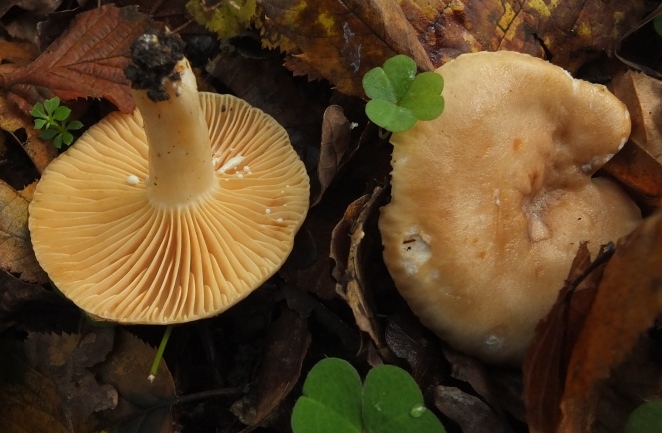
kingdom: Fungi
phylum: Basidiomycota
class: Agaricomycetes
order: Russulales
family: Russulaceae
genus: Lactarius
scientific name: Lactarius pyrogalus
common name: hassel-mælkehat
